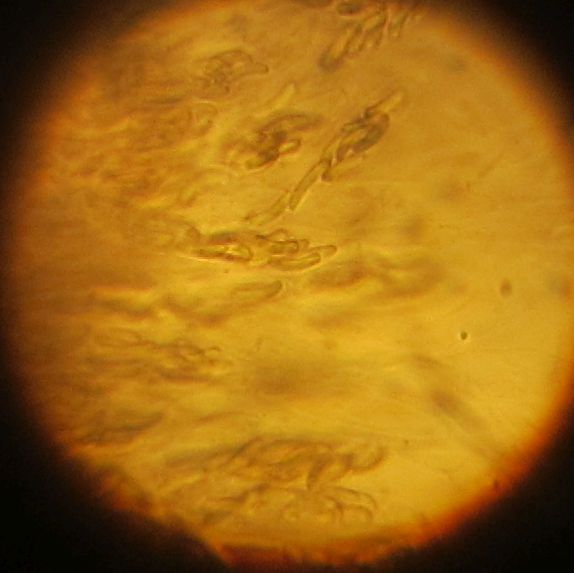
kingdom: Fungi
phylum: Ascomycota
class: Sordariomycetes
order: Diaporthales
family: Diaporthaceae
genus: Diaporthe
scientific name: Diaporthe
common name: kulknippe
